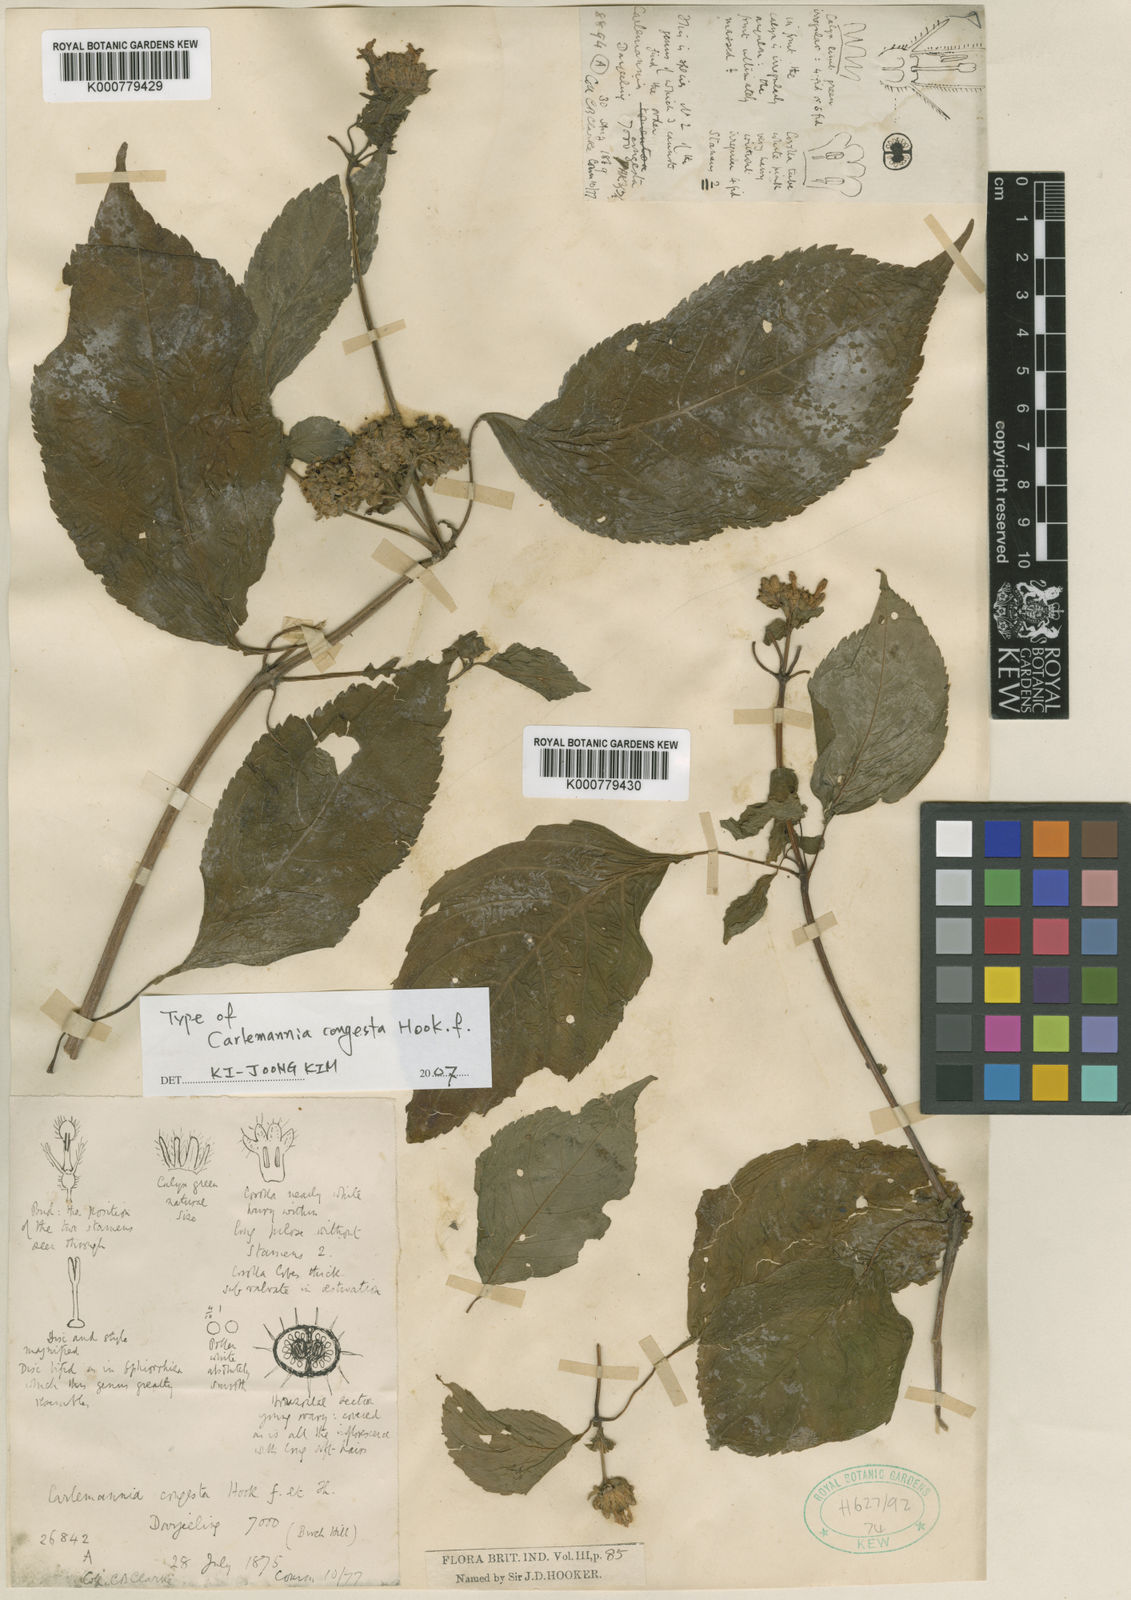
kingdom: Plantae
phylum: Tracheophyta
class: Magnoliopsida
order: Lamiales
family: Carlemanniaceae
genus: Carlemannia
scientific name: Carlemannia congesta
